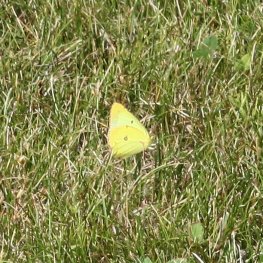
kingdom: Animalia
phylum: Arthropoda
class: Insecta
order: Lepidoptera
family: Pieridae
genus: Colias
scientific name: Colias philodice
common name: Clouded Sulphur
